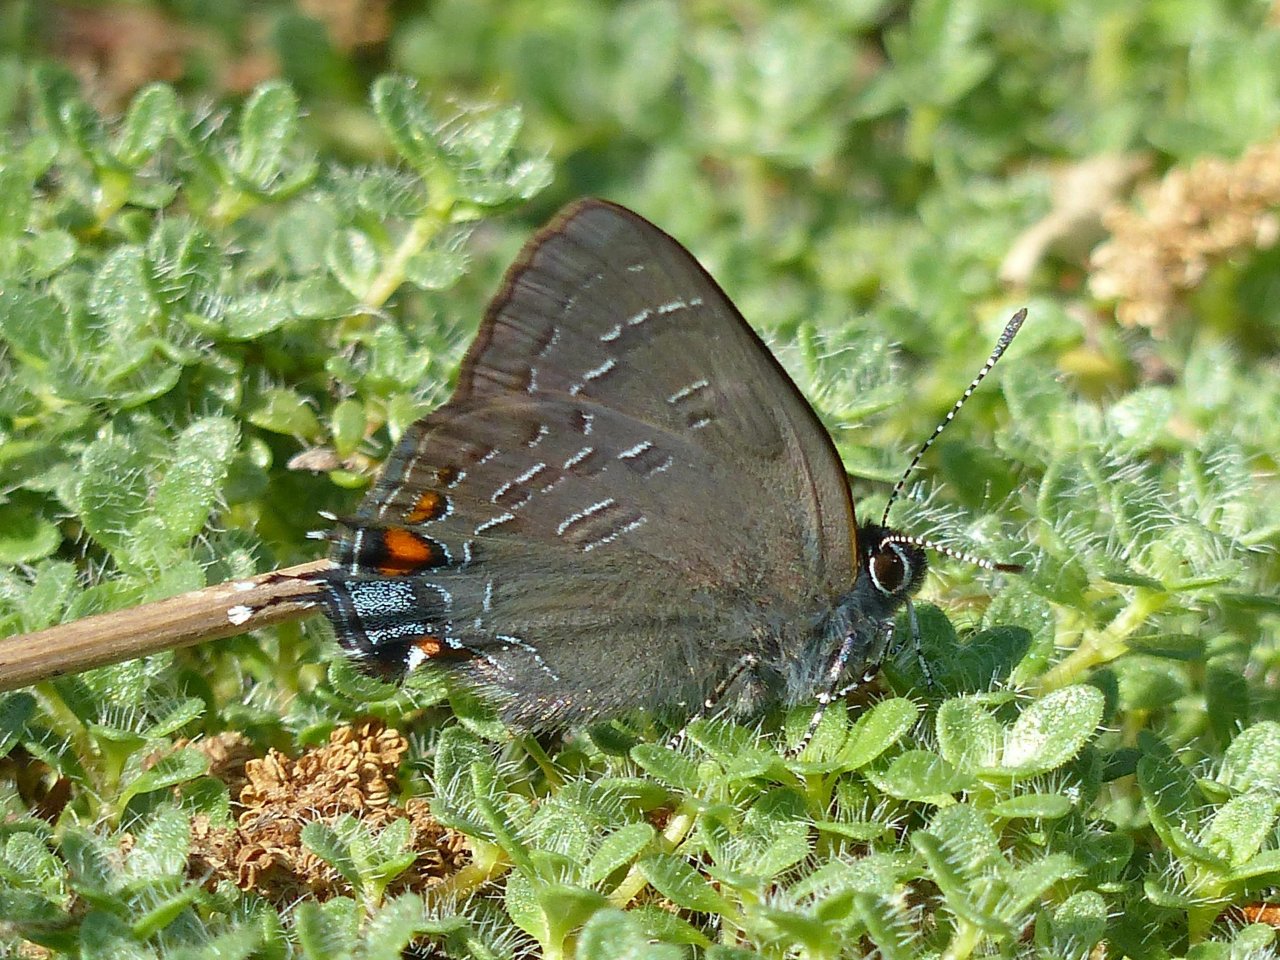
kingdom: Animalia
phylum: Arthropoda
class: Insecta
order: Lepidoptera
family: Lycaenidae
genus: Satyrium
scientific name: Satyrium calanus
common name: Banded Hairstreak
